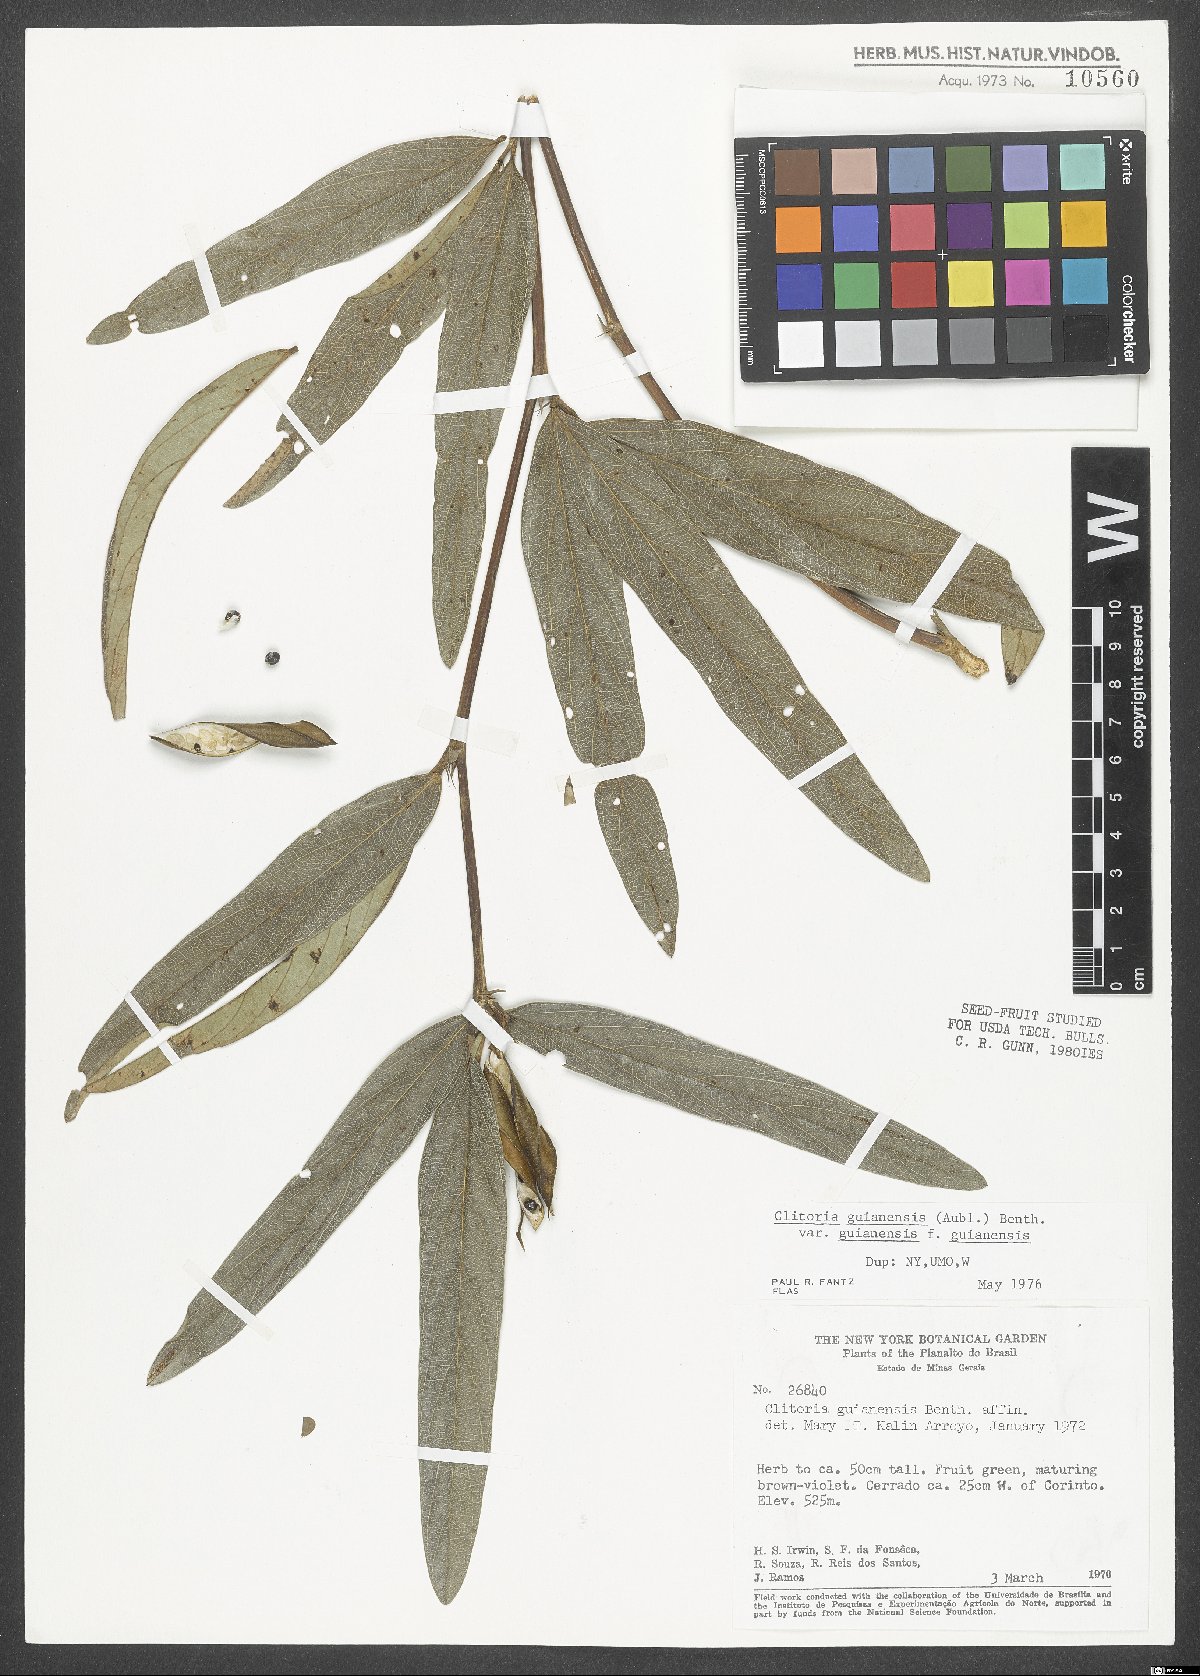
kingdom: Plantae
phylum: Tracheophyta
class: Magnoliopsida
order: Fabales
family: Fabaceae
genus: Clitoria
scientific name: Clitoria guianensis
